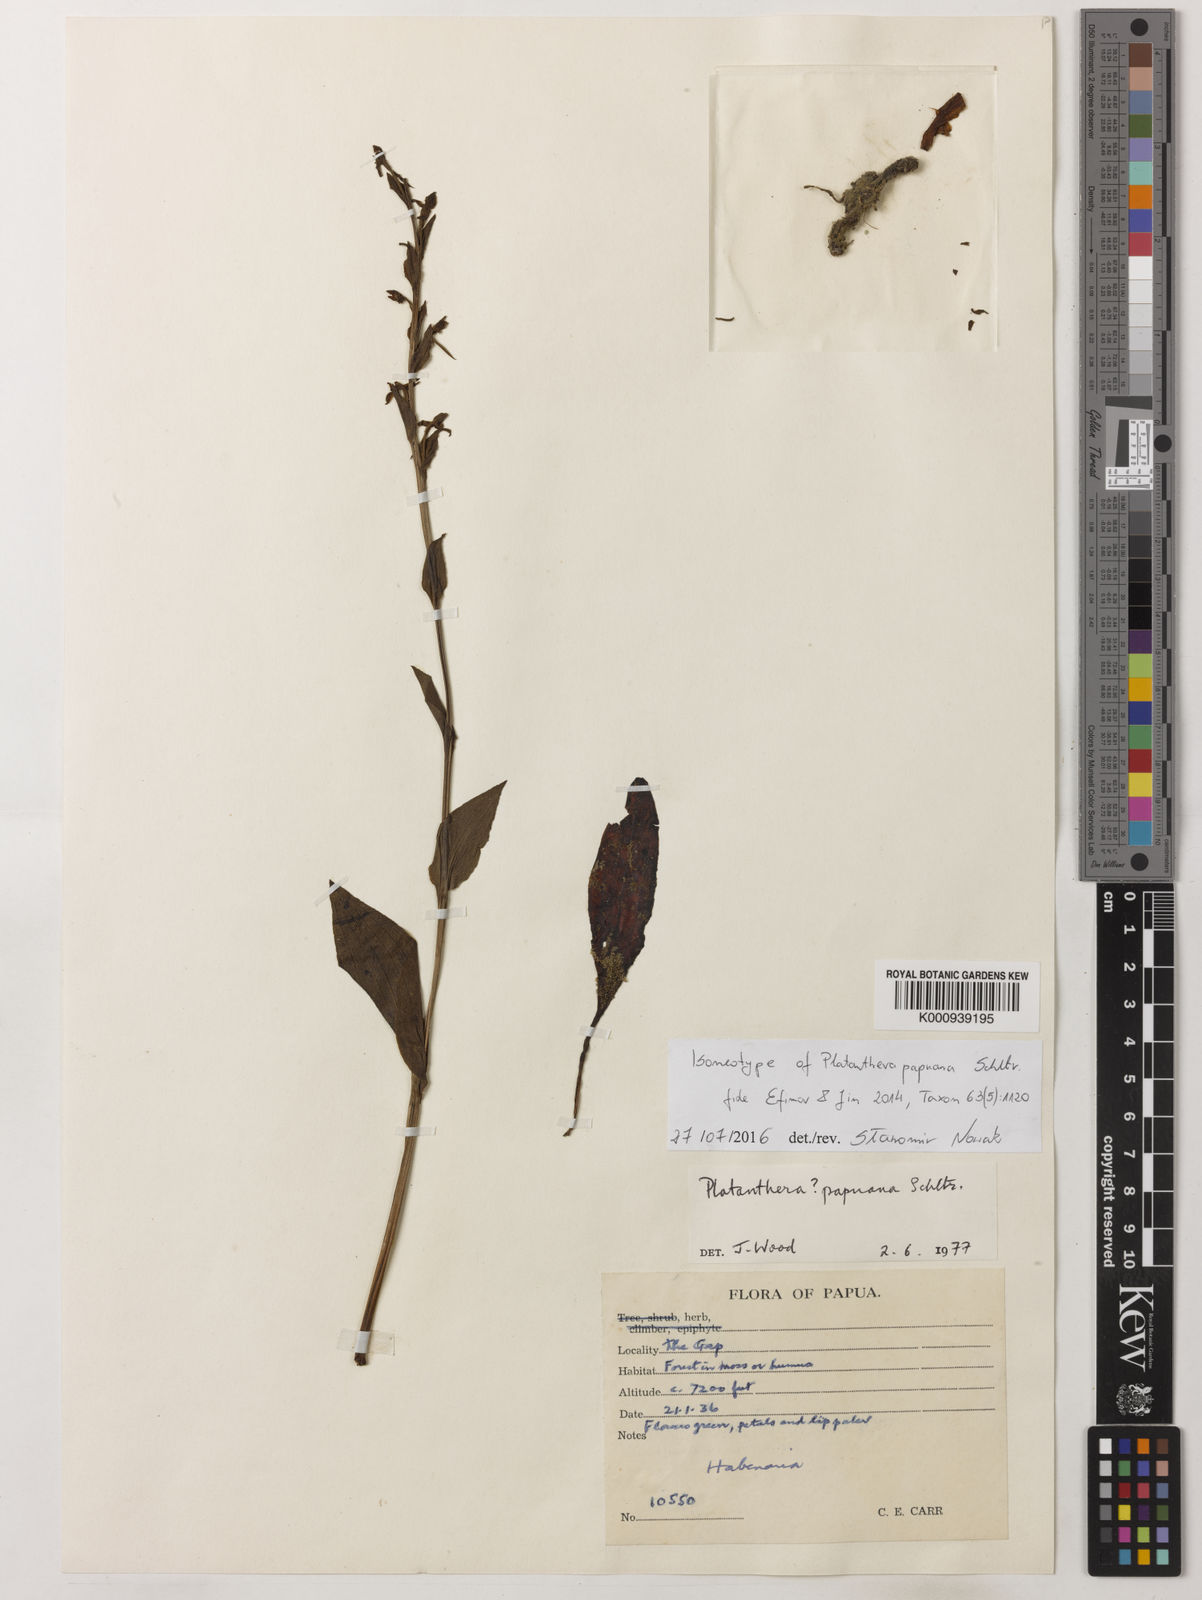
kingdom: Plantae
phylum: Tracheophyta
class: Liliopsida
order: Asparagales
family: Orchidaceae
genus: Platanthera
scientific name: Platanthera papuana
